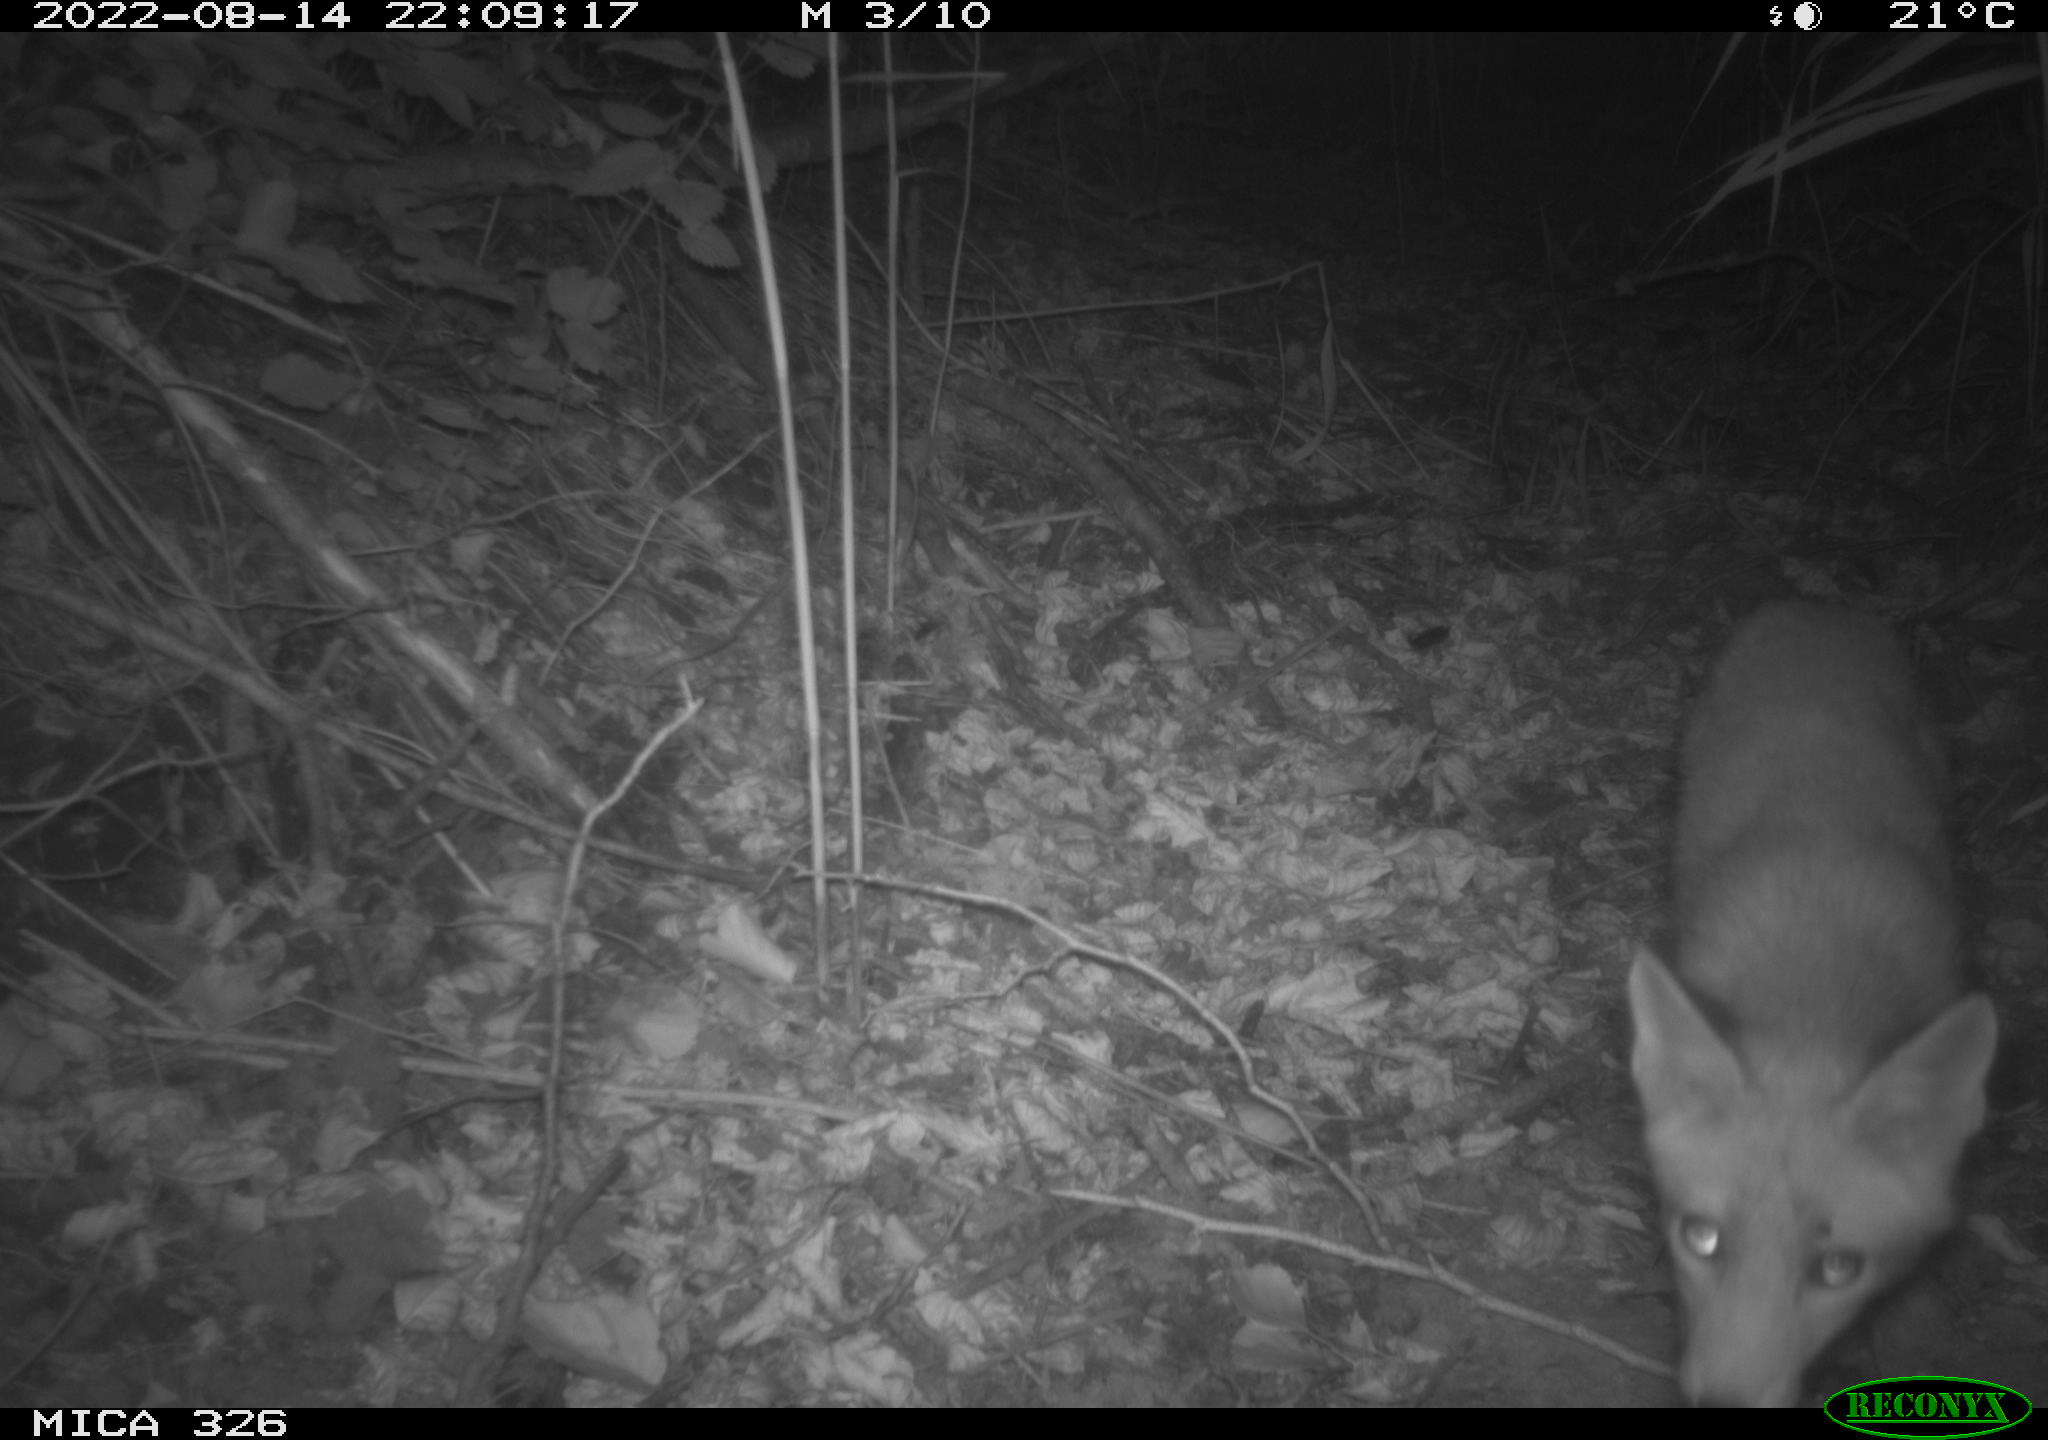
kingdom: Animalia
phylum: Chordata
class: Mammalia
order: Carnivora
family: Canidae
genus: Vulpes
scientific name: Vulpes vulpes
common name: Red fox
